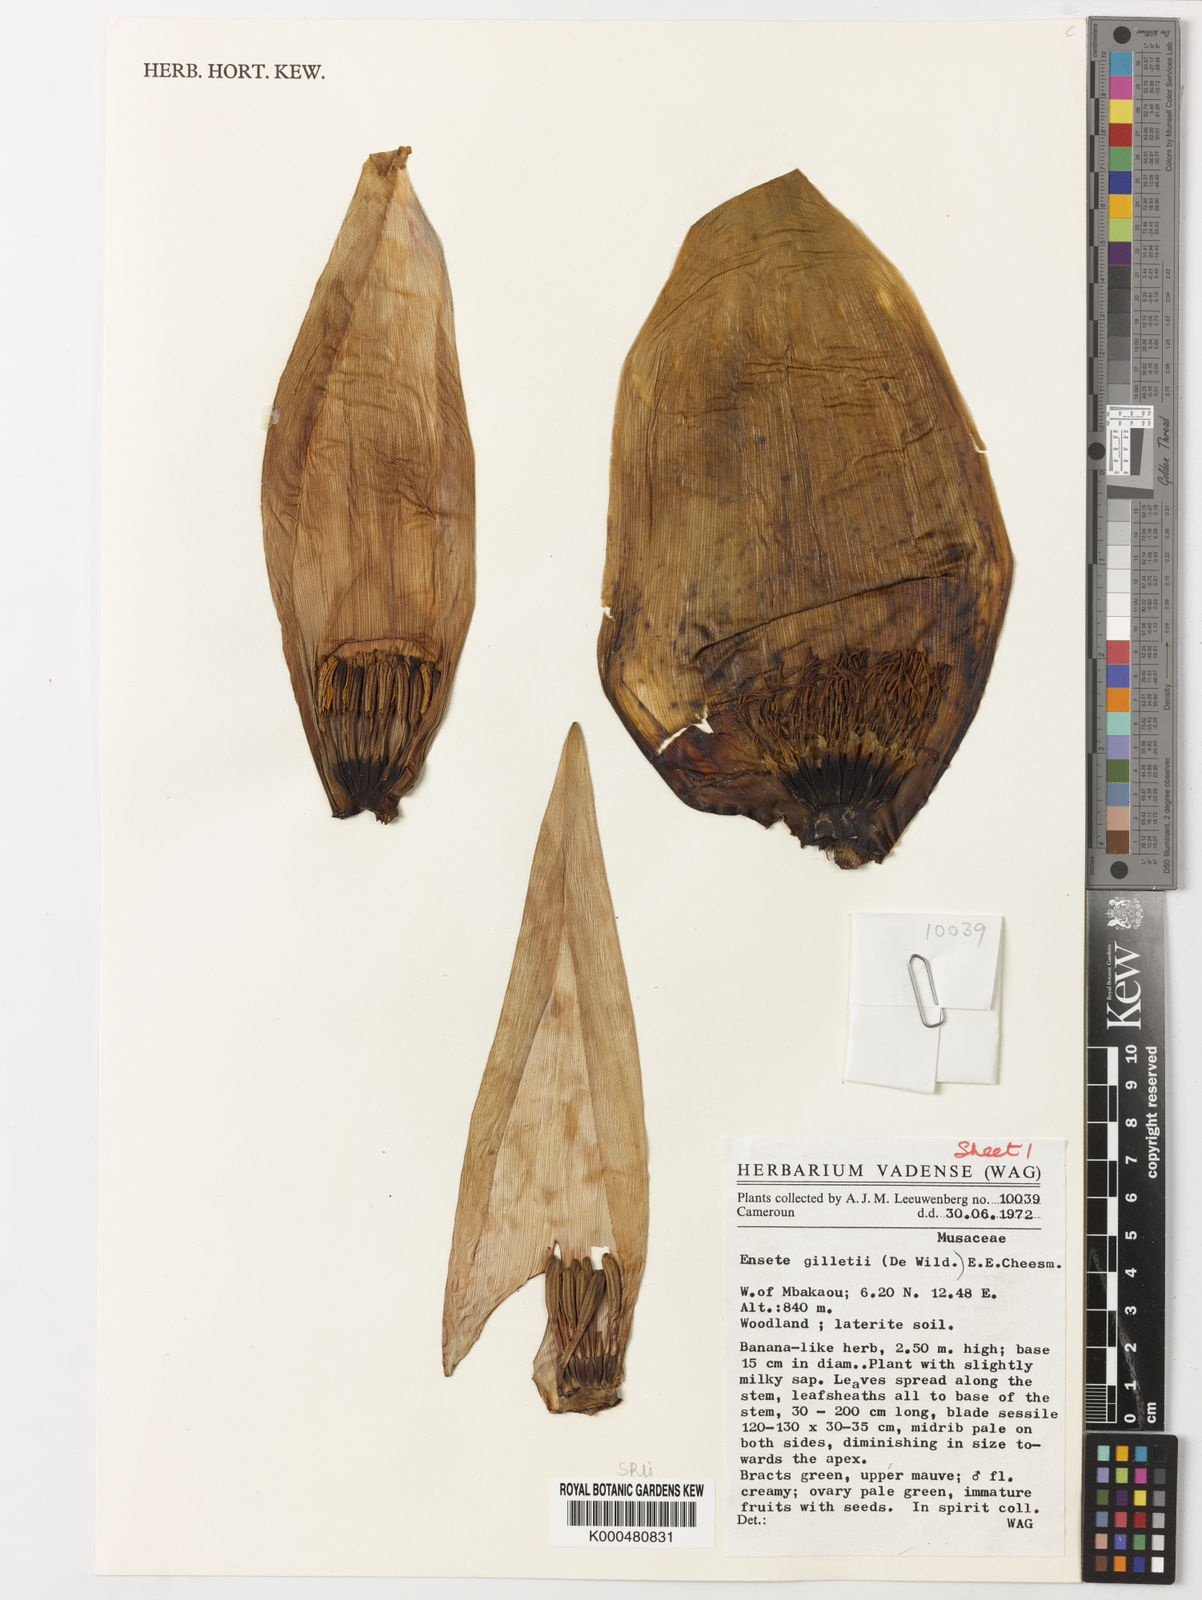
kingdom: Plantae
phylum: Tracheophyta
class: Liliopsida
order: Zingiberales
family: Musaceae
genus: Ensete
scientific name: Ensete livingstonianum
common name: Livingston's banana
